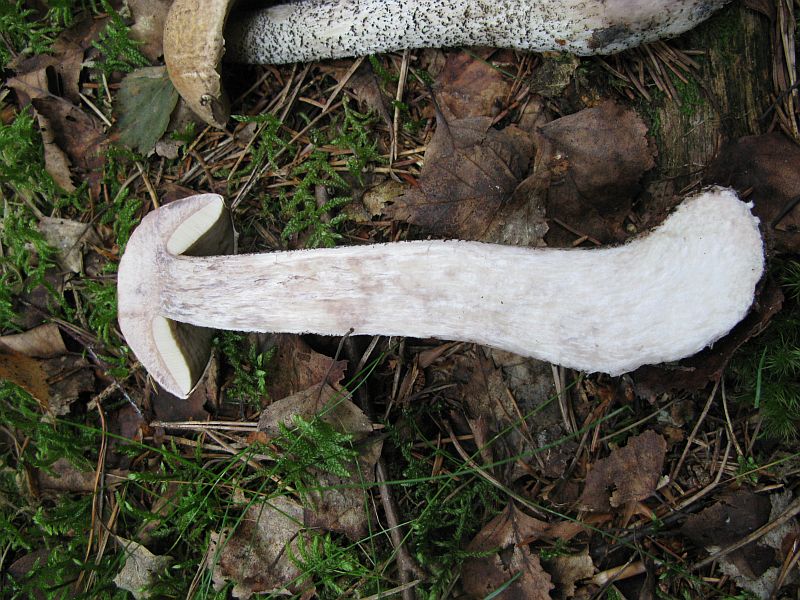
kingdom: Fungi
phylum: Basidiomycota
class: Agaricomycetes
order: Boletales
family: Boletaceae
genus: Leccinum
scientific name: Leccinum versipelle
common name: orange skælrørhat
